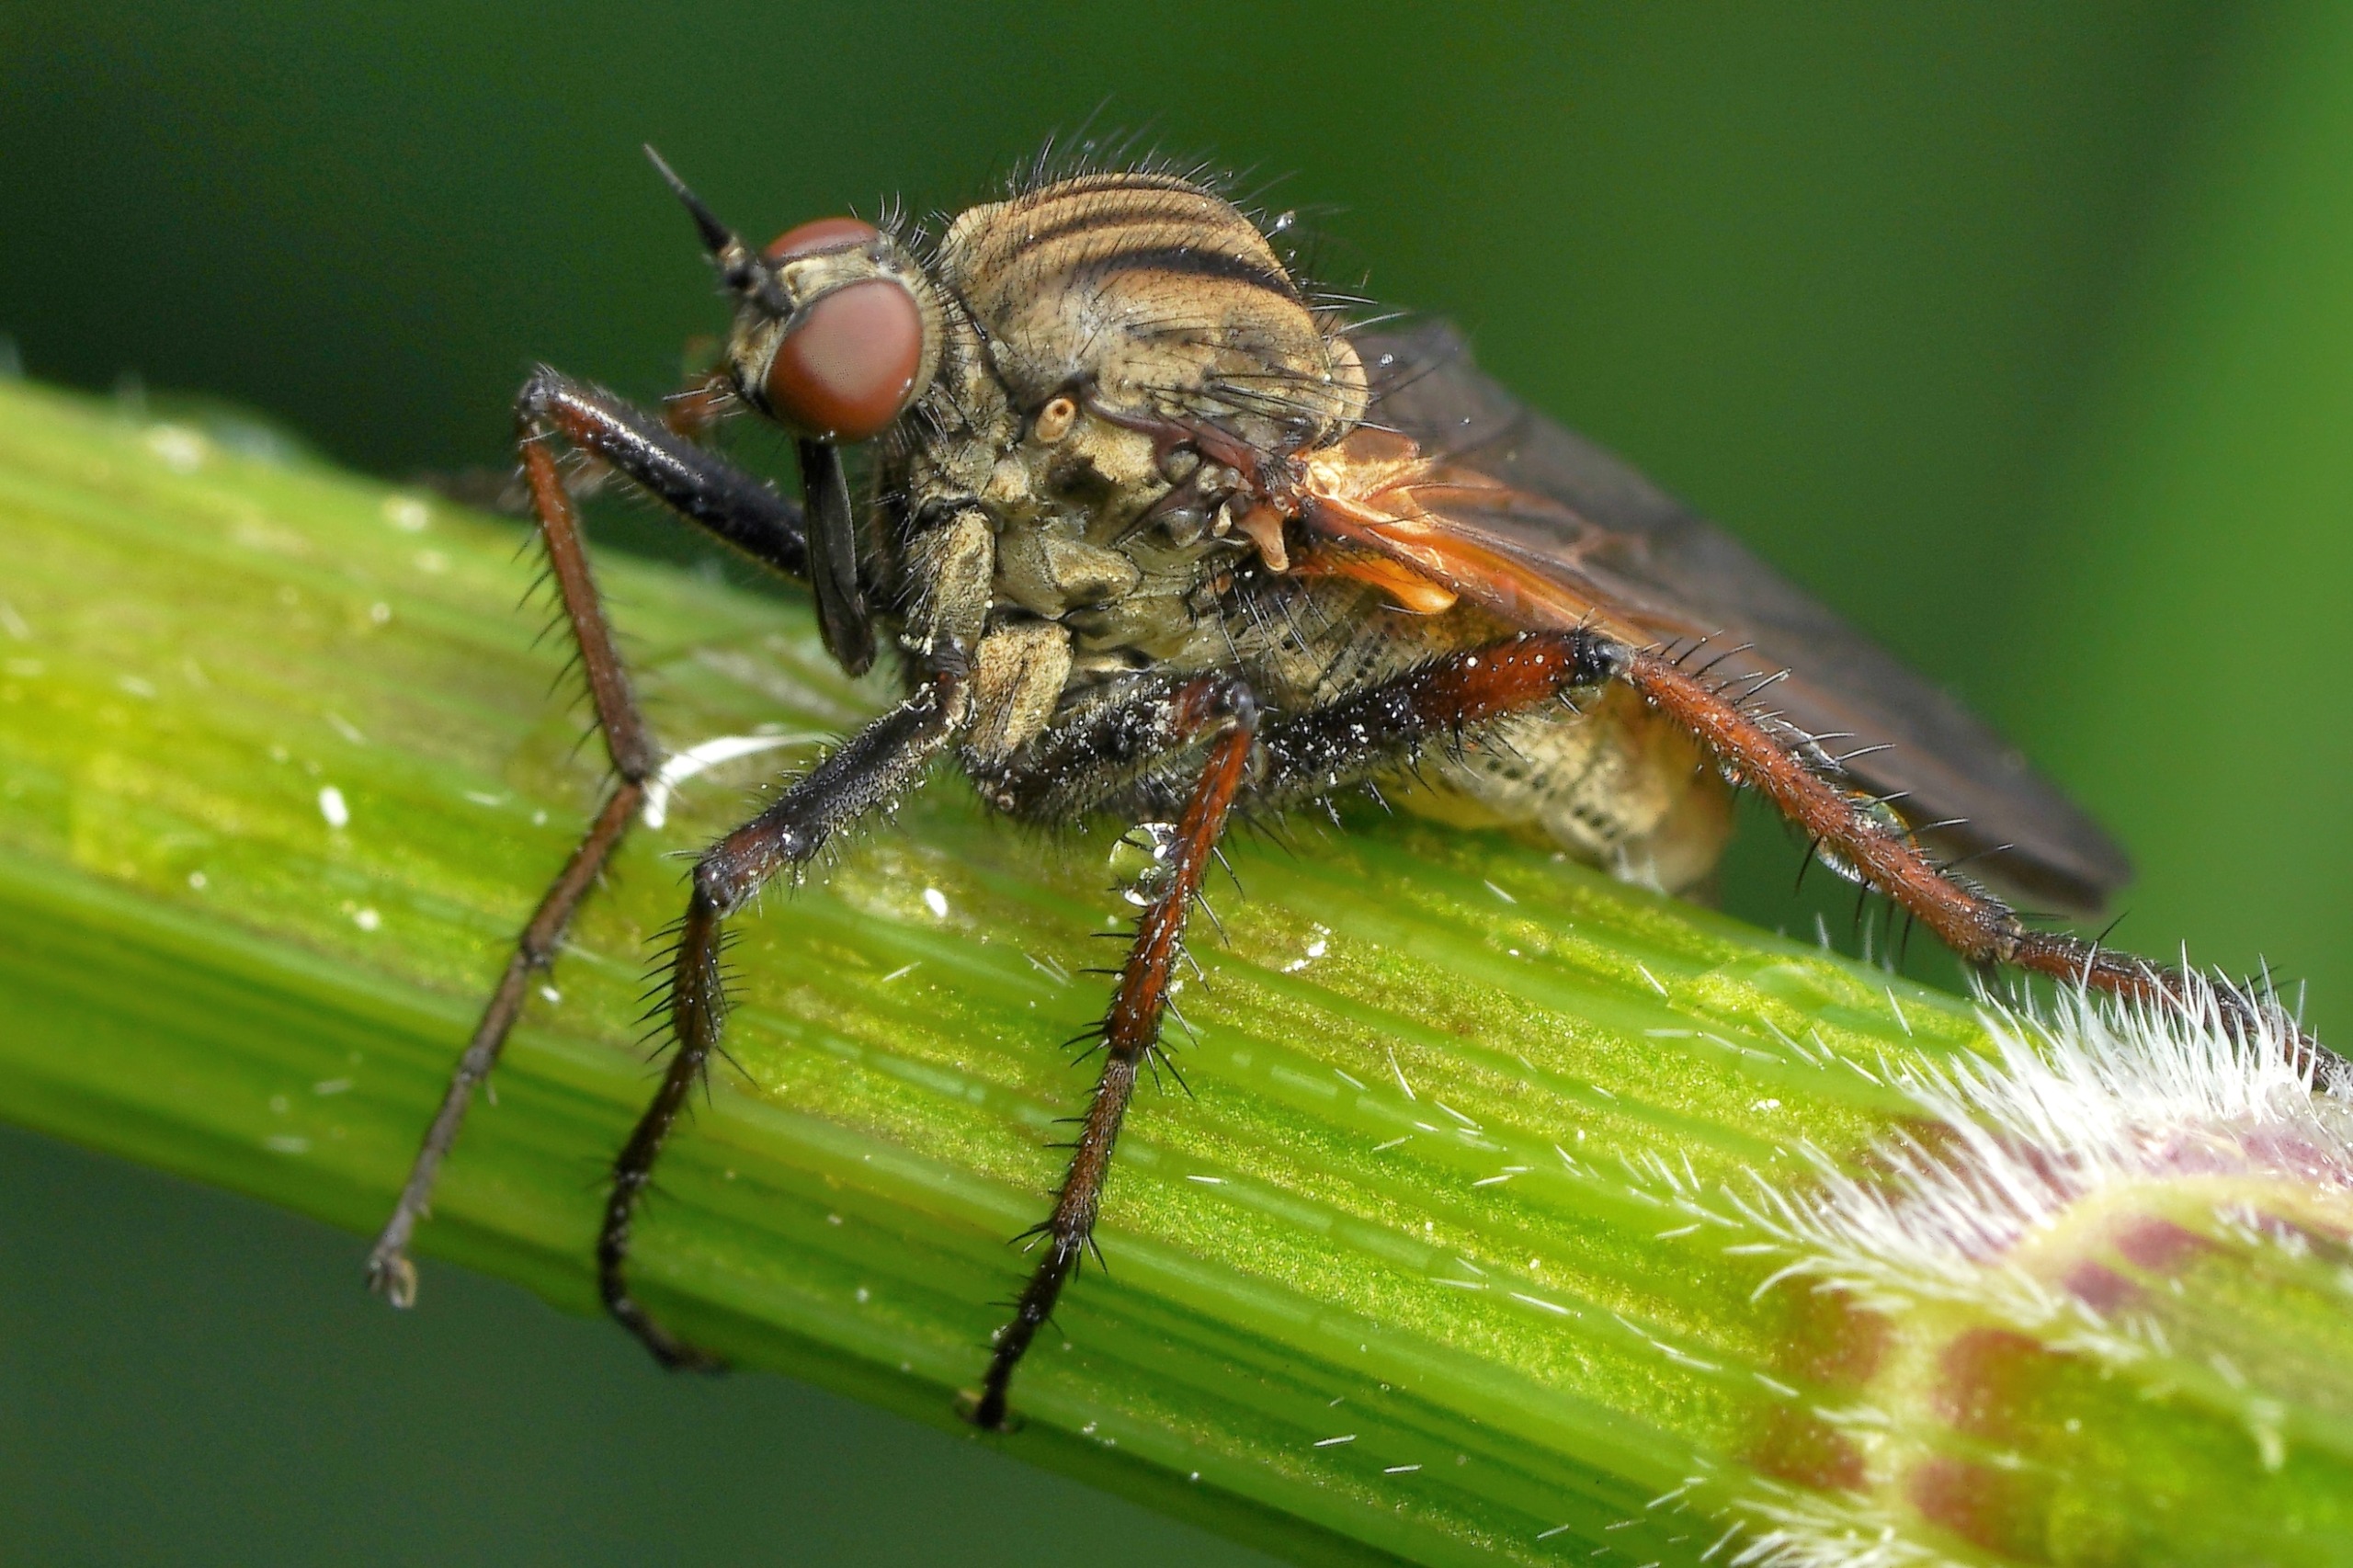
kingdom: Animalia
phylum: Arthropoda
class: Insecta
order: Diptera
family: Empididae
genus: Empis
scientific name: Empis tessellata
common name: Stor danseflue
